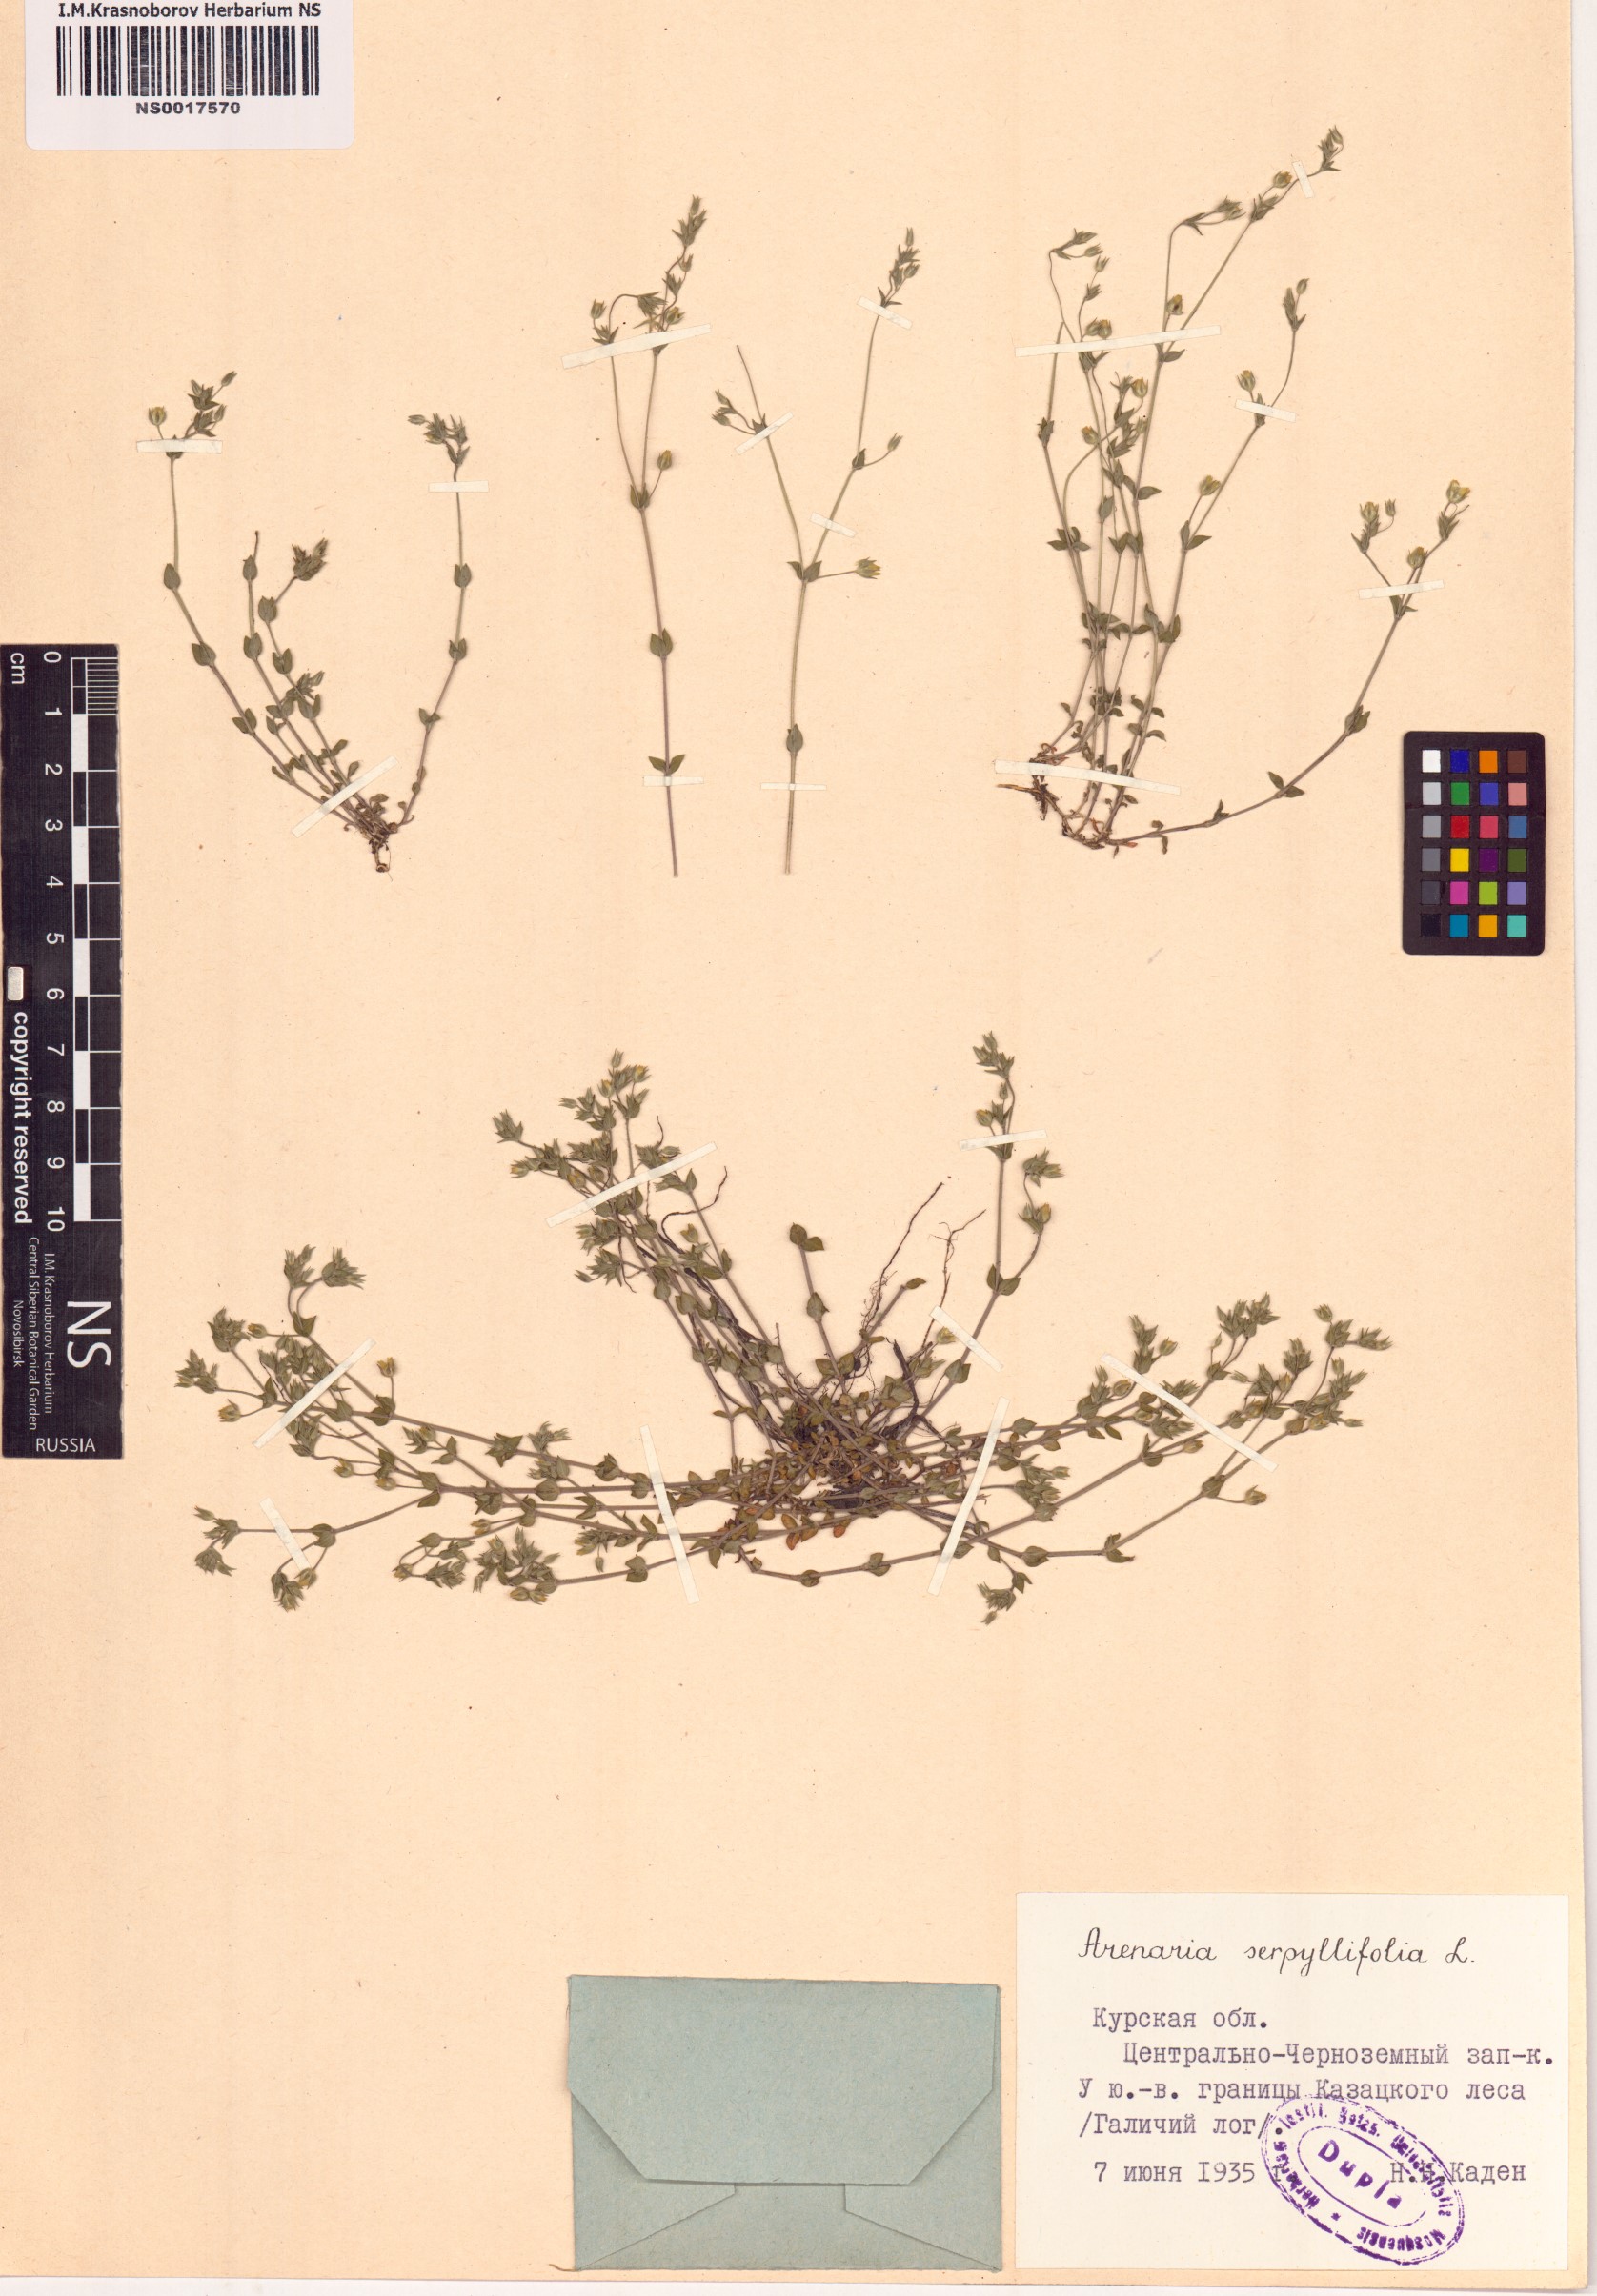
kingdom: Plantae
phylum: Tracheophyta
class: Magnoliopsida
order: Caryophyllales
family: Caryophyllaceae
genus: Arenaria
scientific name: Arenaria serpyllifolia
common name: Thyme-leaved sandwort
